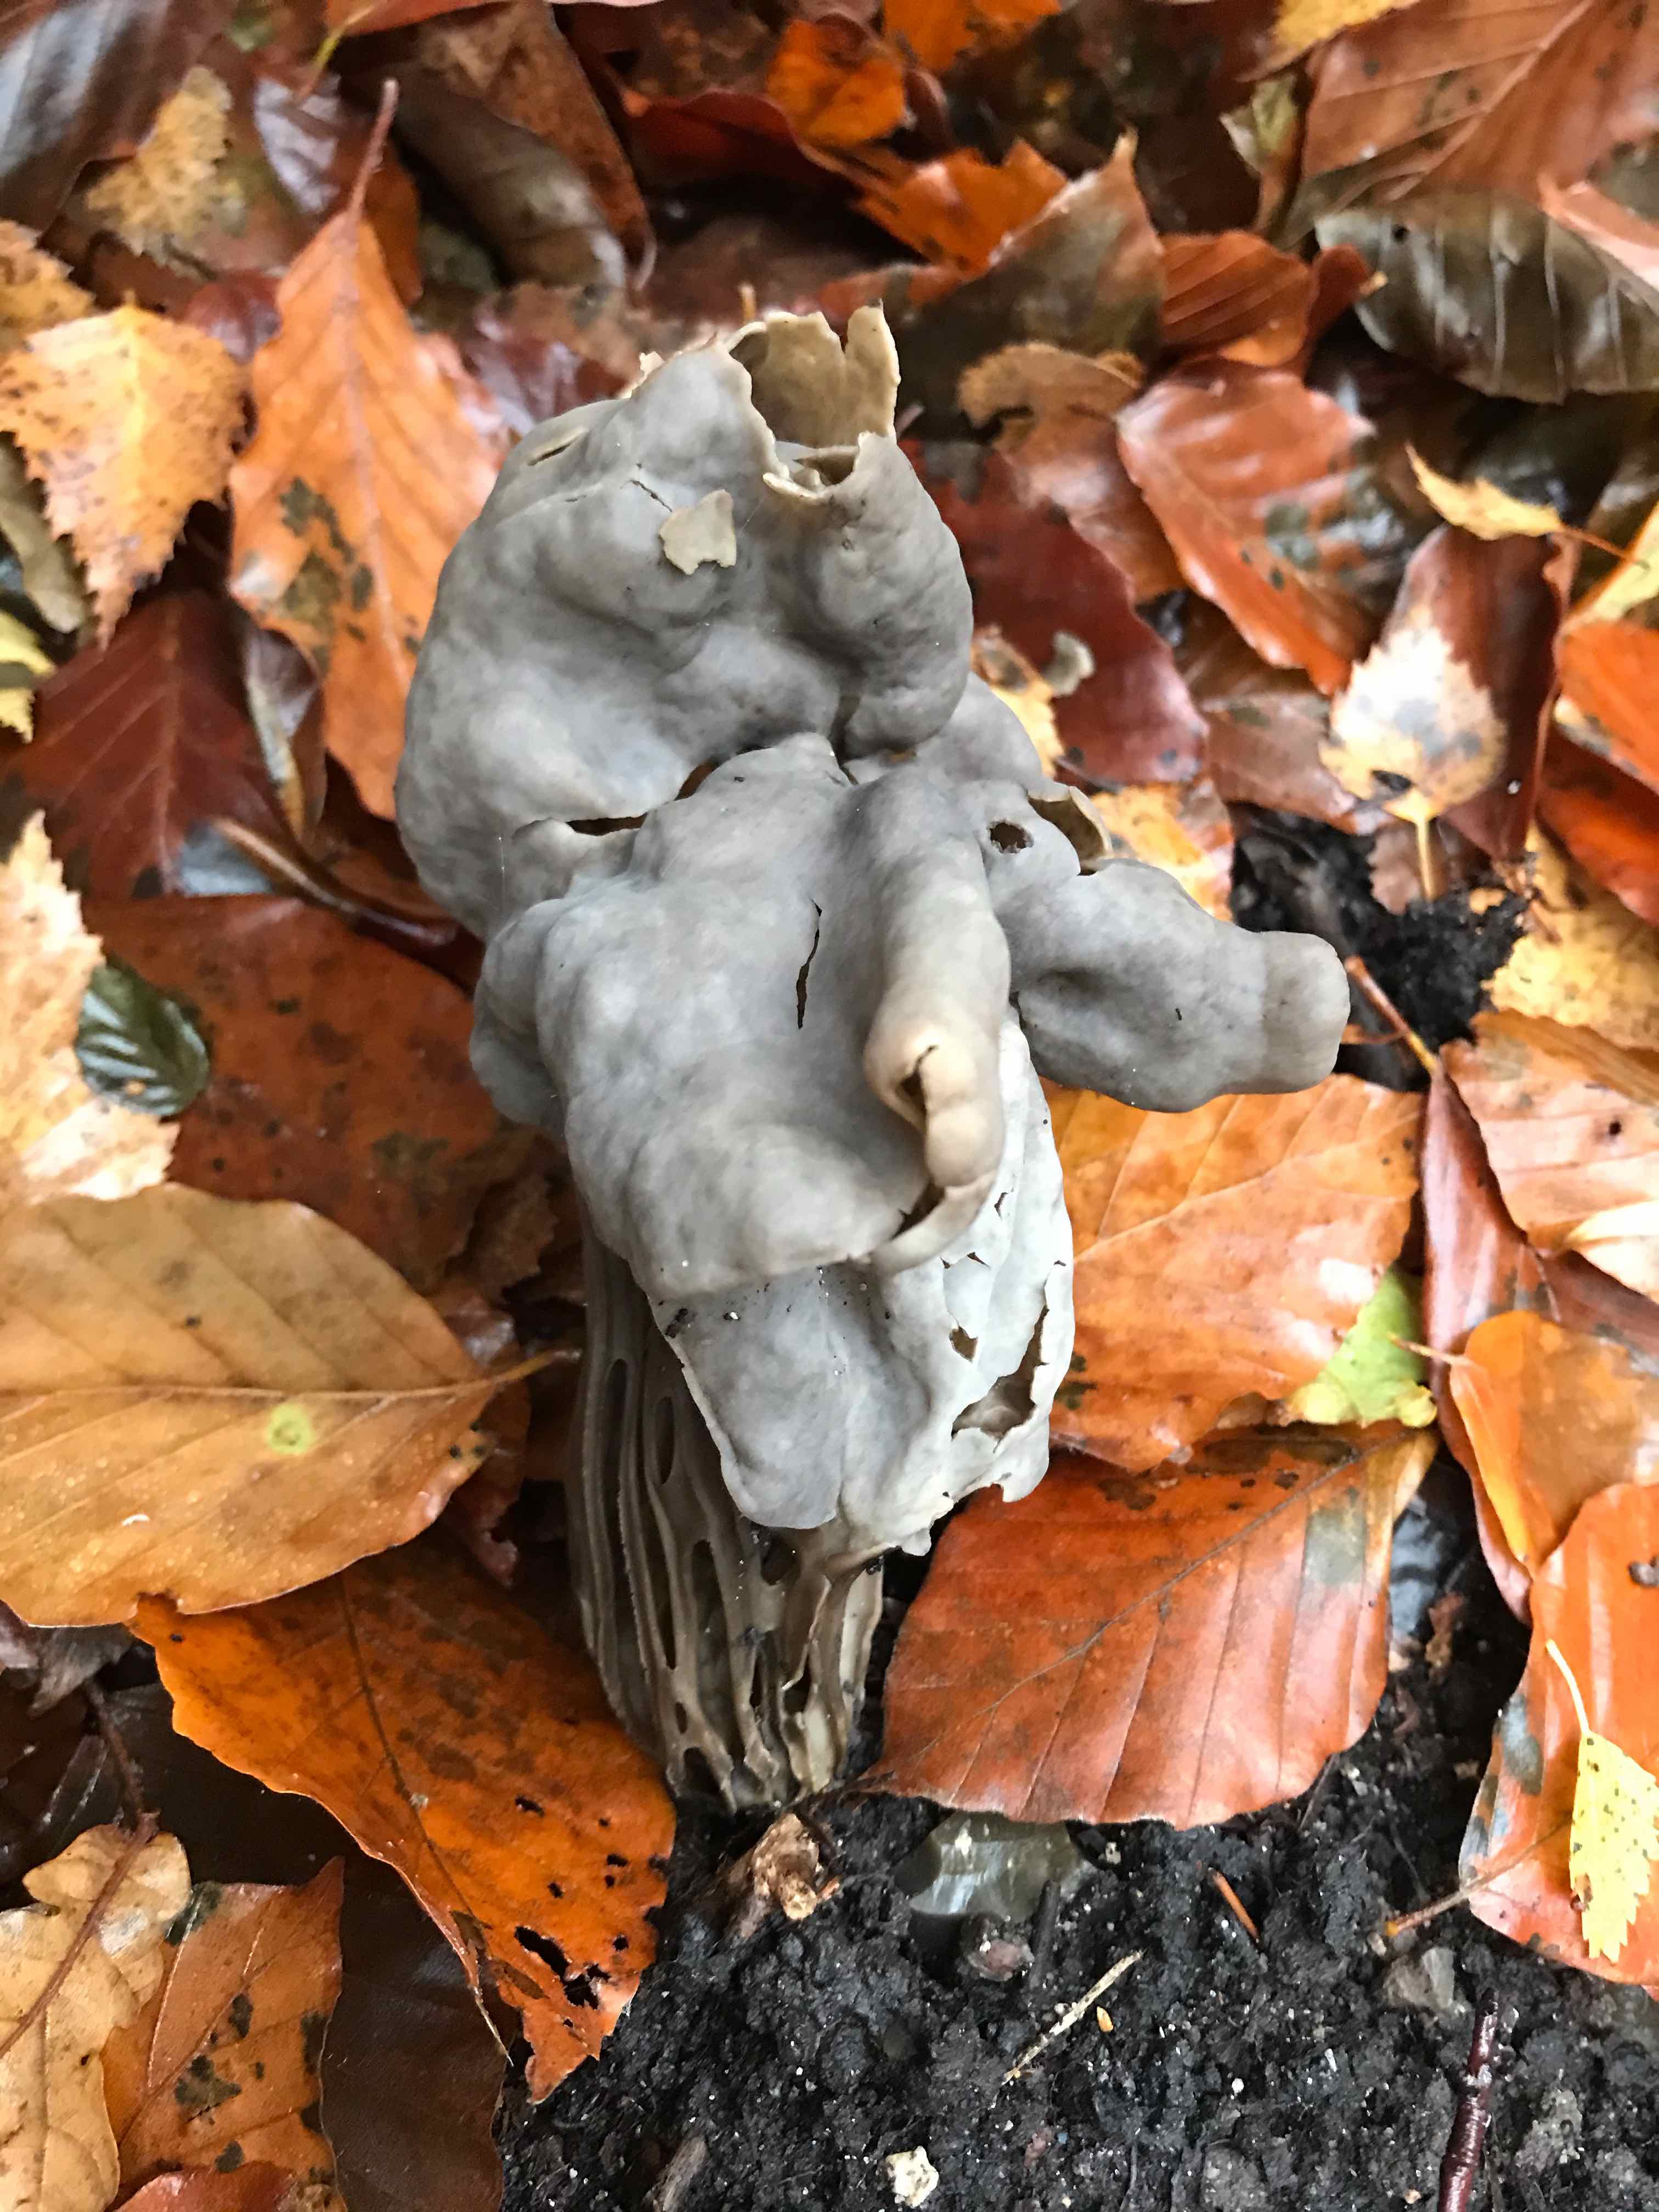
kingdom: Fungi
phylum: Ascomycota
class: Pezizomycetes
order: Pezizales
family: Helvellaceae
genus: Helvella
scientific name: Helvella lacunosa
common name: grubet foldhat
